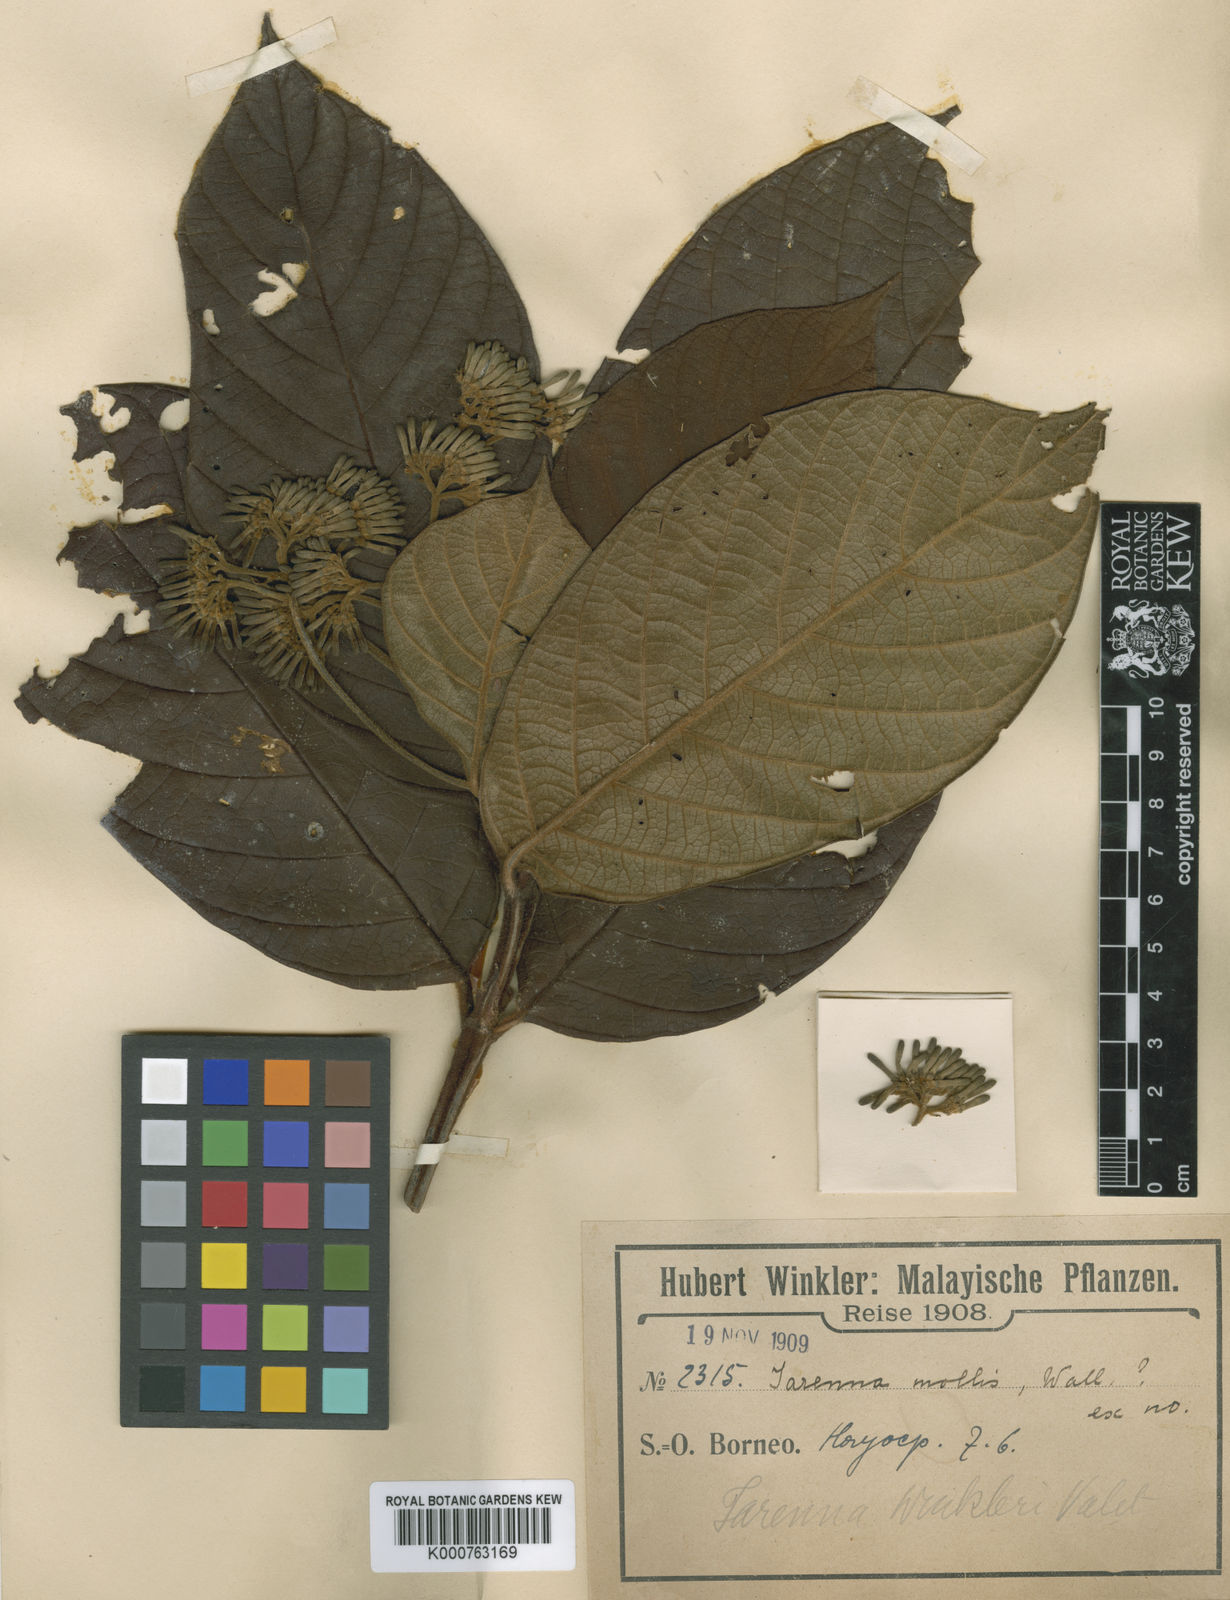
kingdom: Plantae
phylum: Tracheophyta
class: Magnoliopsida
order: Gentianales
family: Rubiaceae
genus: Tarenna
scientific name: Tarenna winkleri
